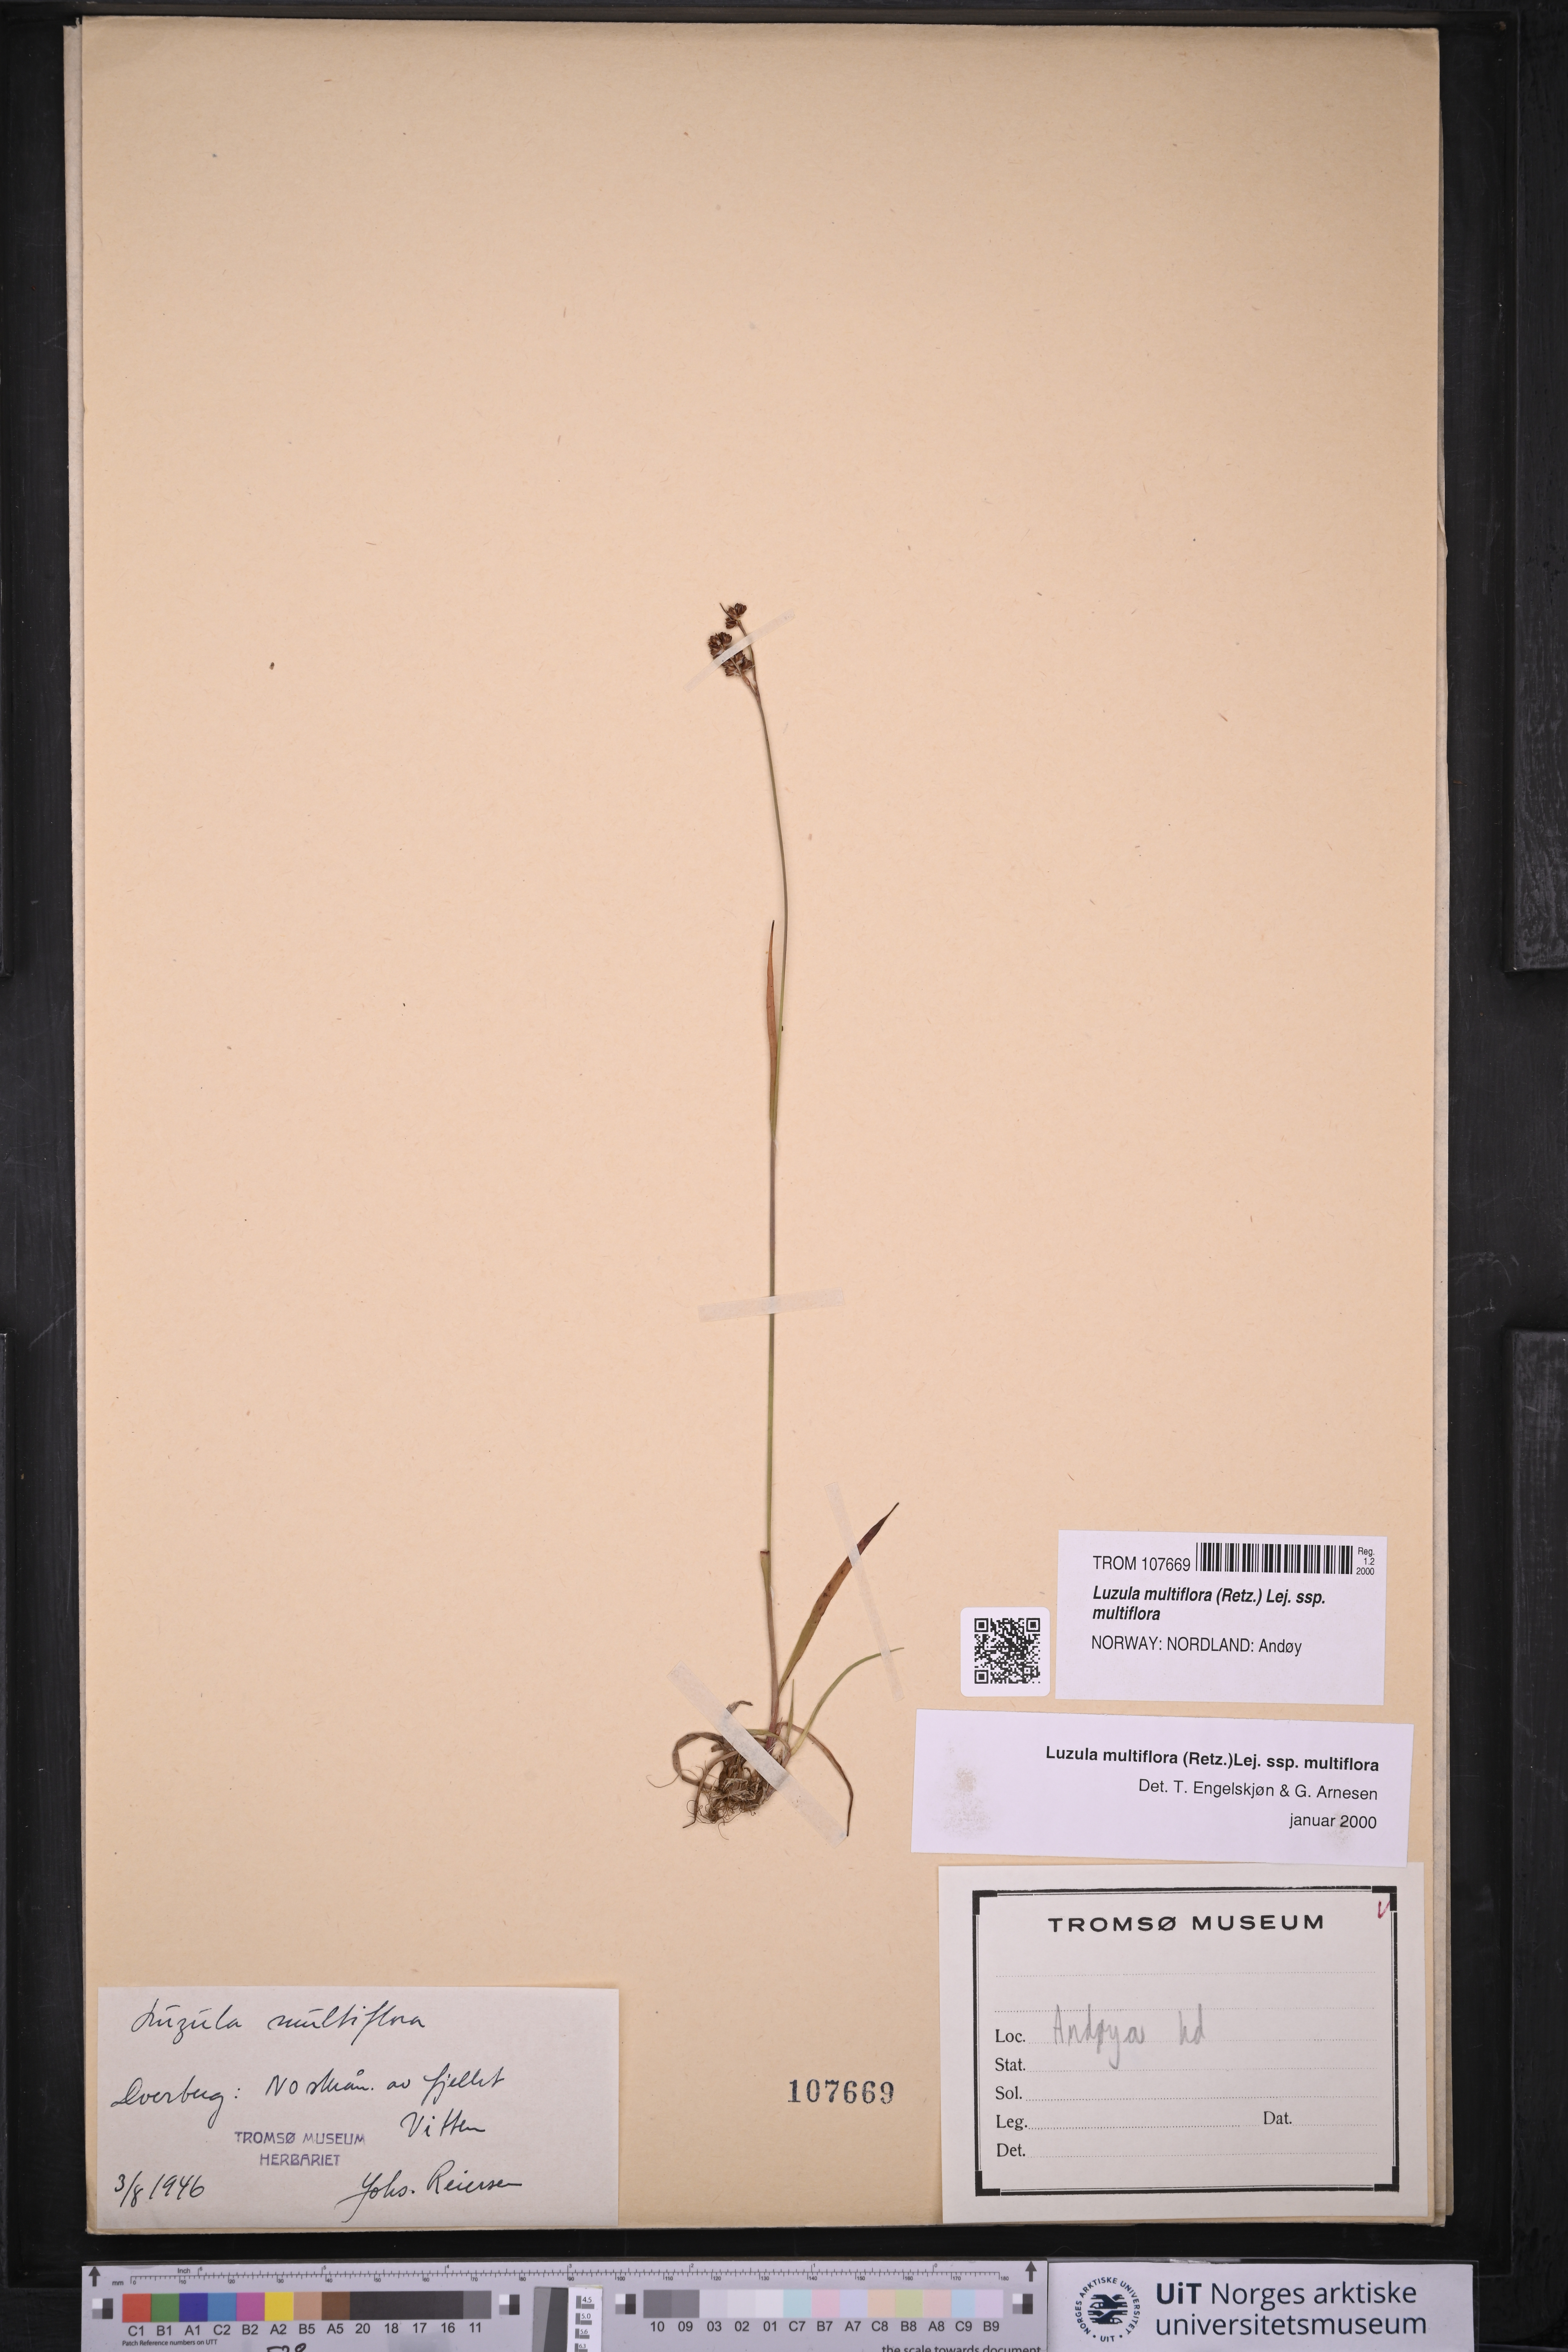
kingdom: Plantae
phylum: Tracheophyta
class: Liliopsida
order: Poales
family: Juncaceae
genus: Luzula
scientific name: Luzula multiflora
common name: Heath wood-rush
